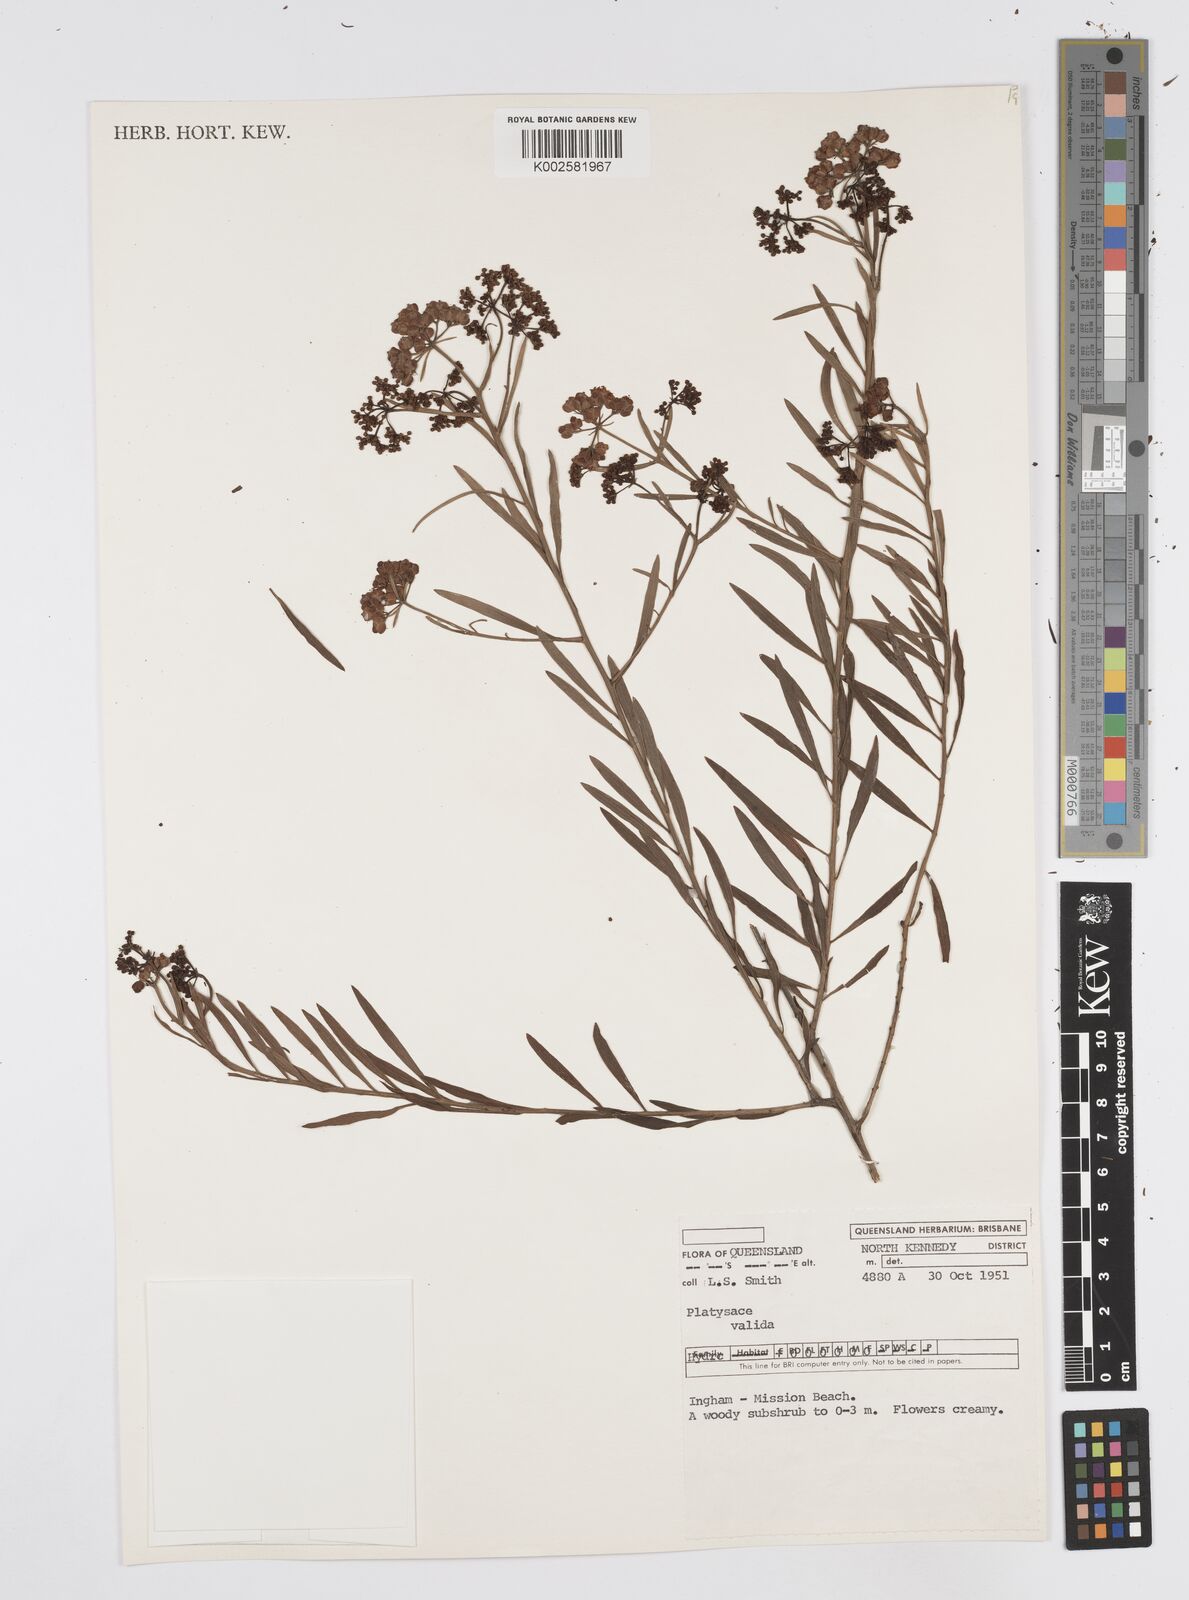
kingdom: Plantae
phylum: Tracheophyta
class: Magnoliopsida
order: Apiales
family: Apiaceae
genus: Platysace
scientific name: Platysace valida
